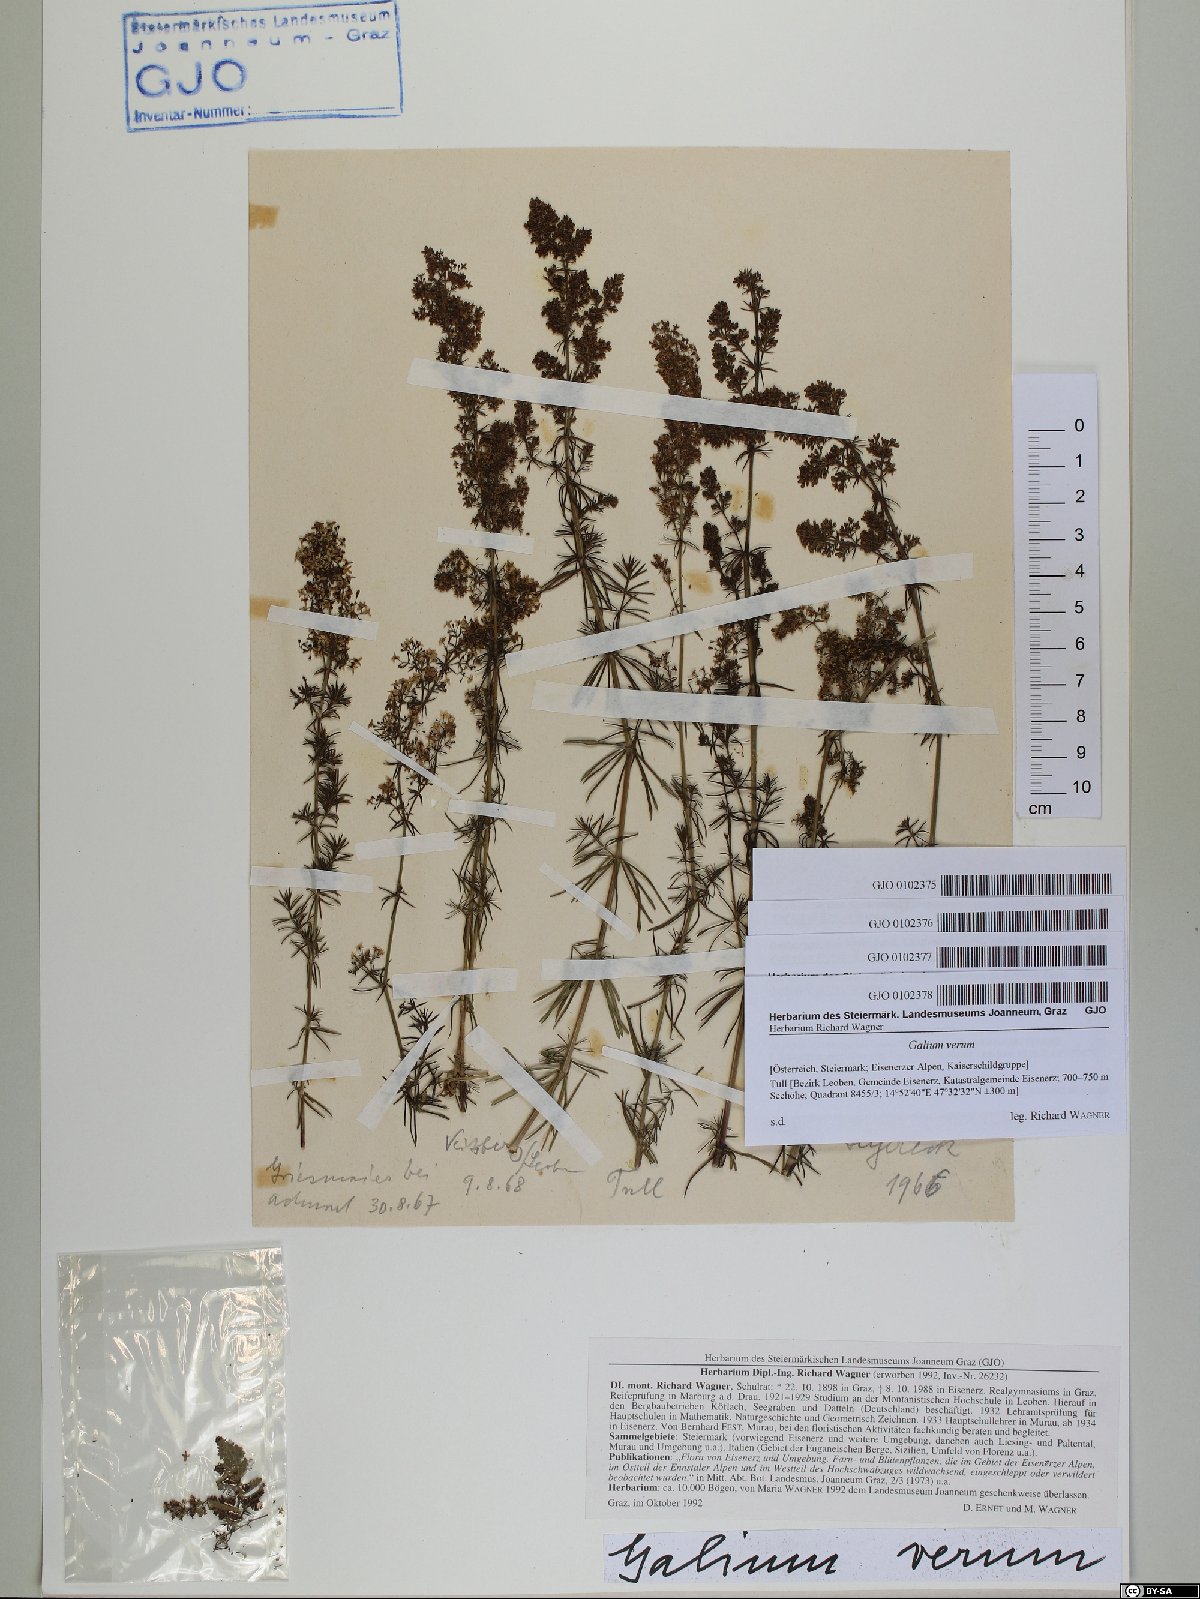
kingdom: Plantae
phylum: Tracheophyta
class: Magnoliopsida
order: Gentianales
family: Rubiaceae
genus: Galium
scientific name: Galium verum
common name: Lady's bedstraw
